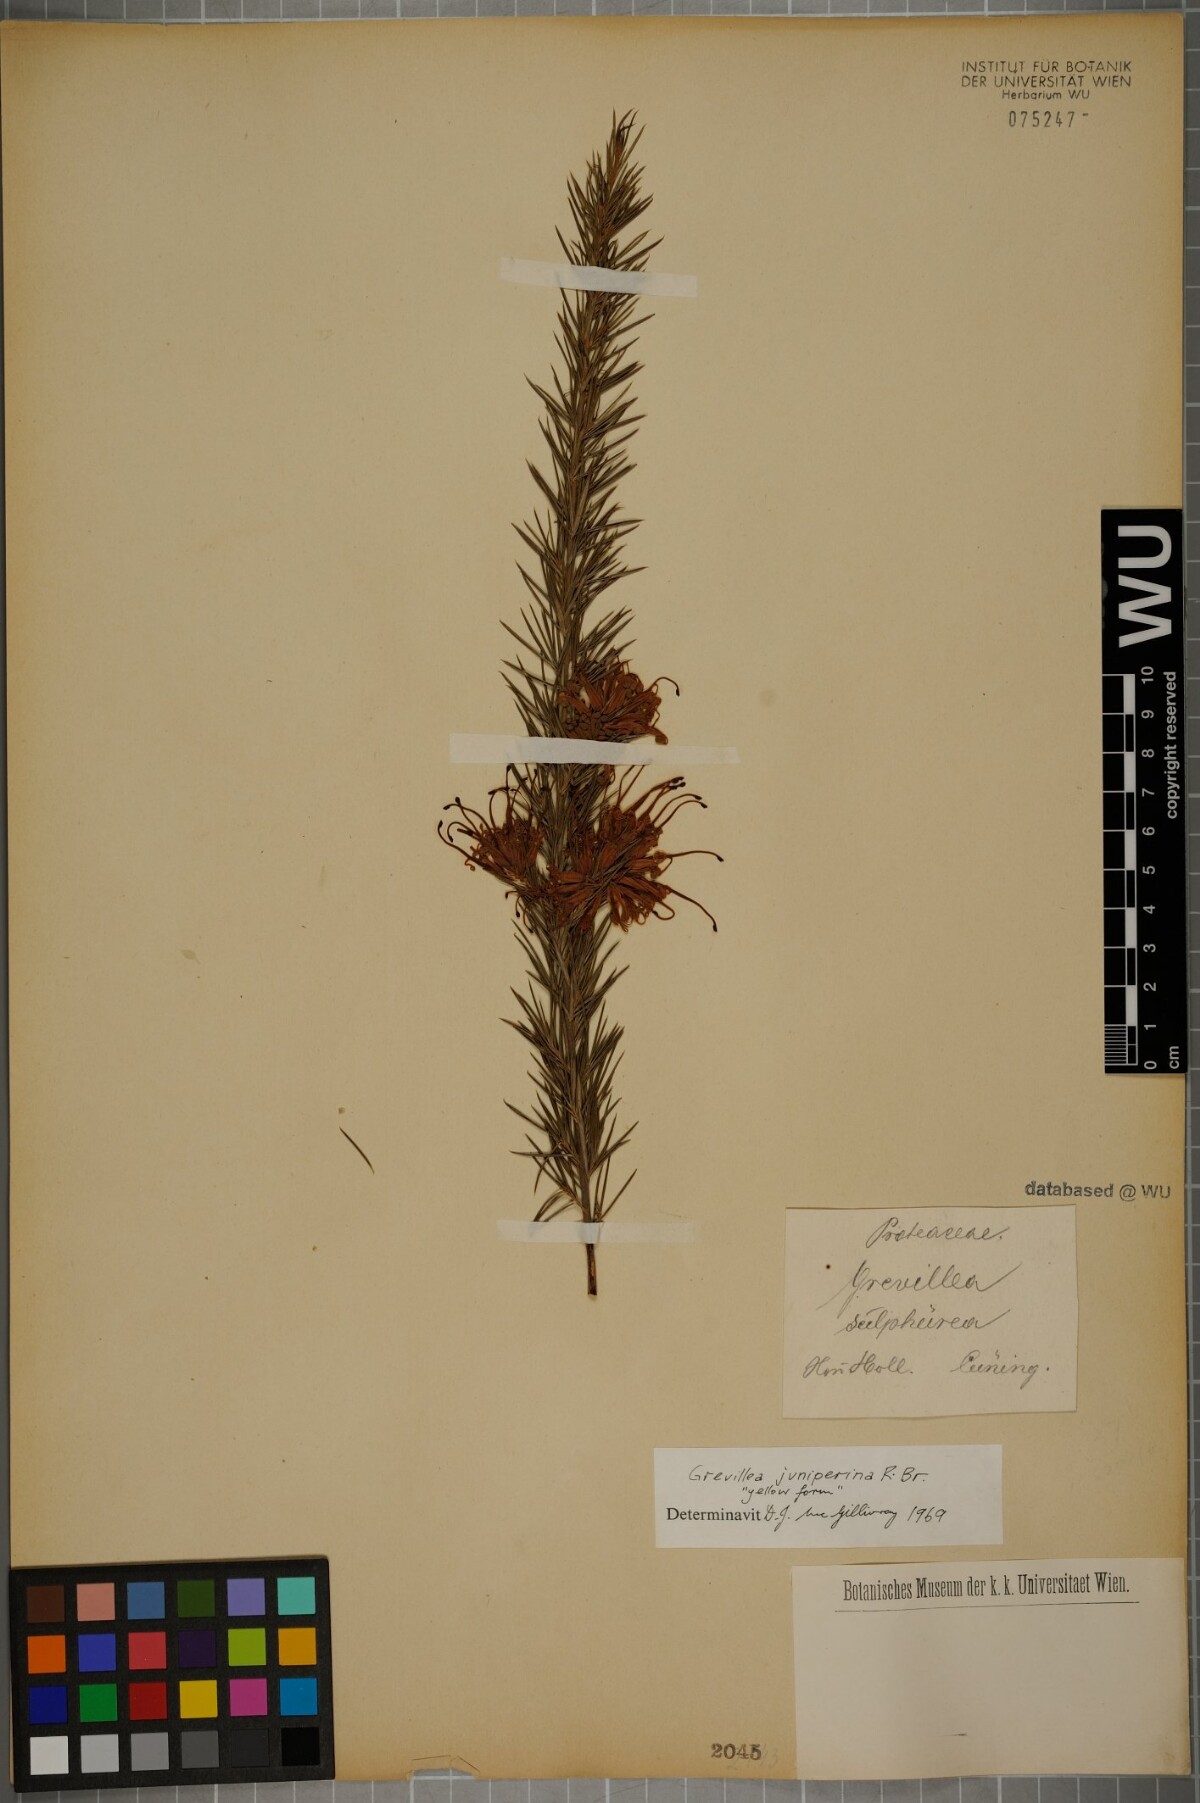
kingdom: Plantae
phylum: Tracheophyta
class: Magnoliopsida
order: Proteales
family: Proteaceae
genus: Grevillea
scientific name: Grevillea juniperina
